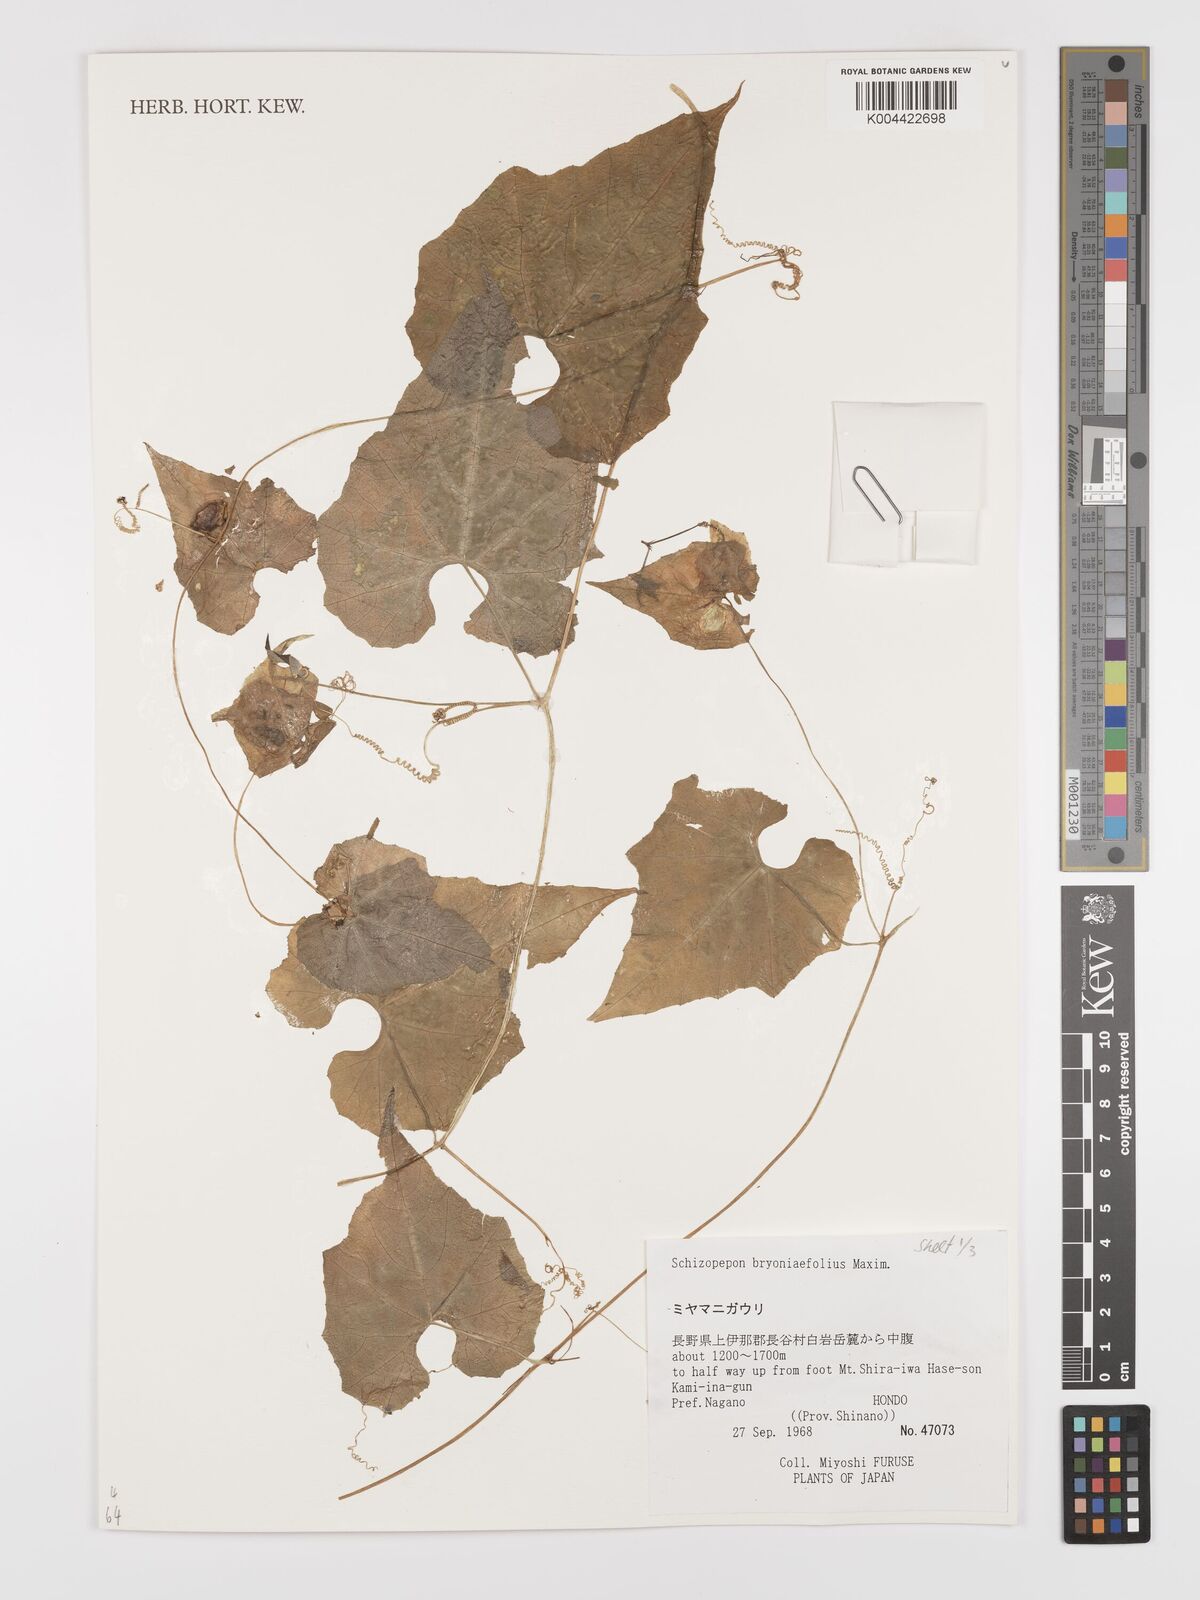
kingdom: Plantae
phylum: Tracheophyta
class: Magnoliopsida
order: Cucurbitales
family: Cucurbitaceae
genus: Schizopepon
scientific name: Schizopepon bryoniifolius
